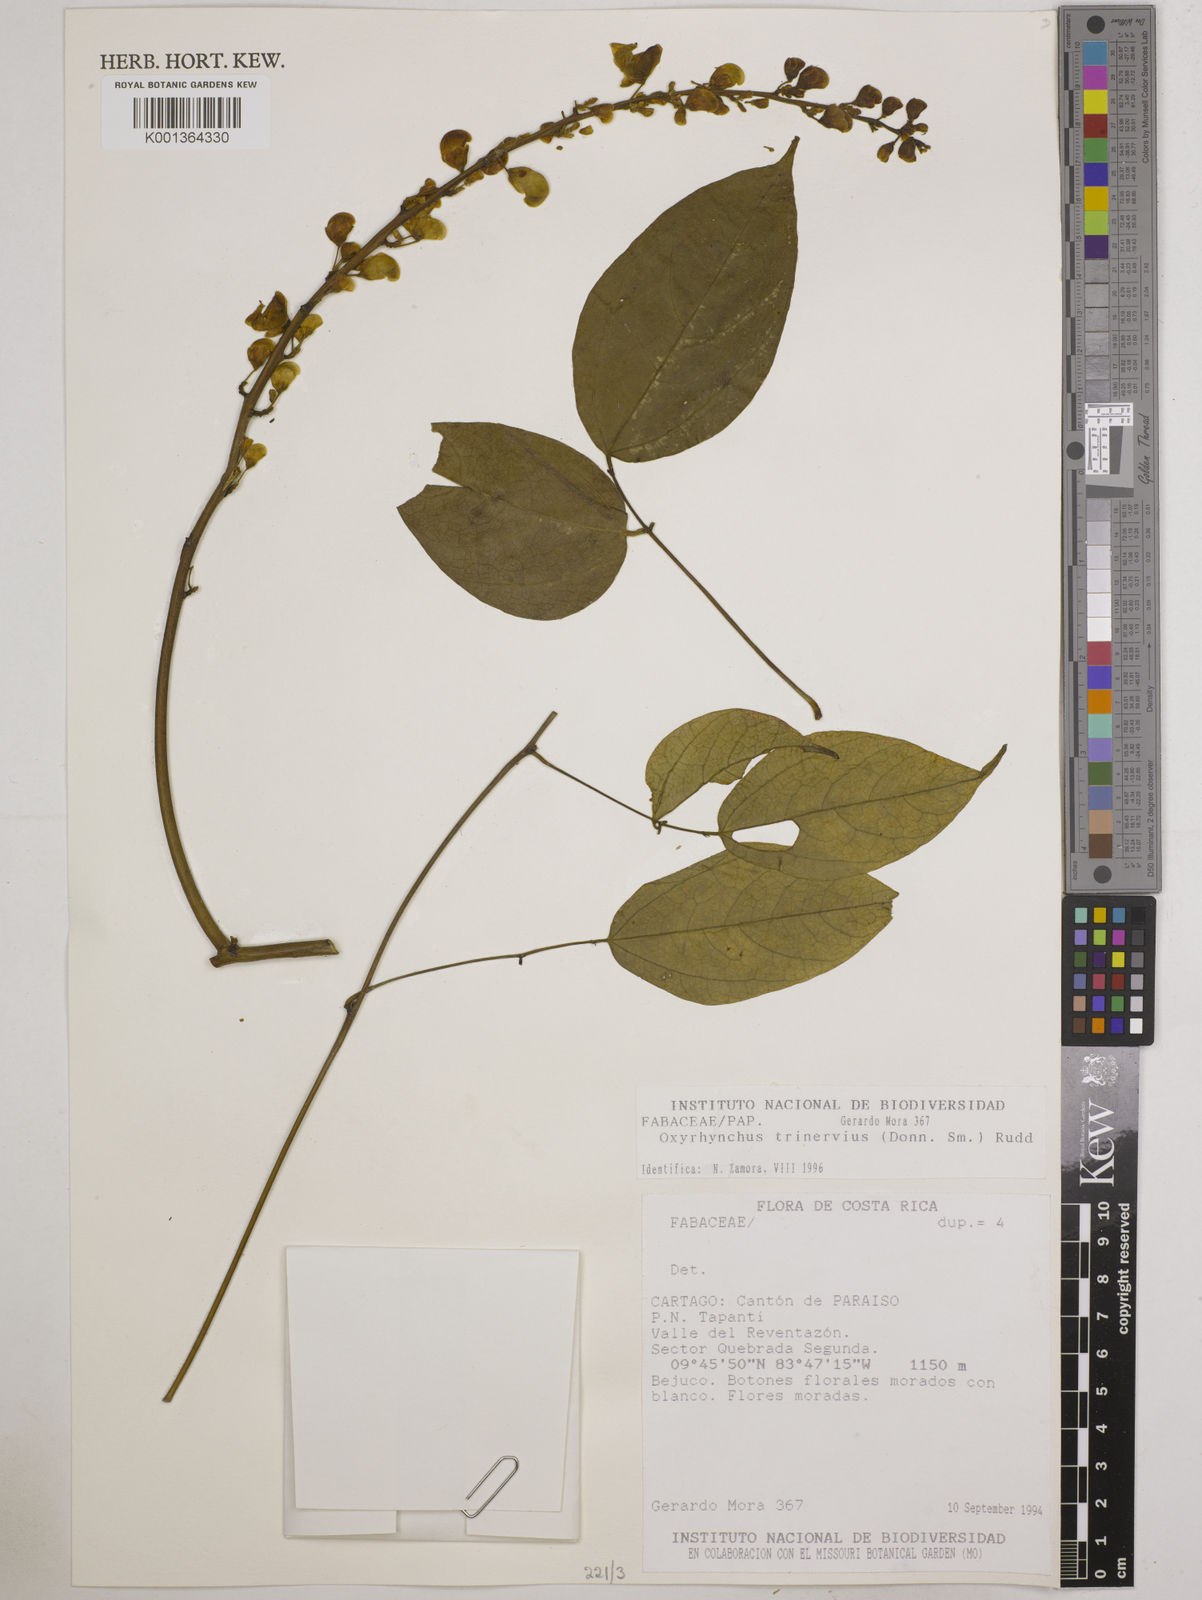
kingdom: Plantae
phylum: Tracheophyta
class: Magnoliopsida
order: Fabales
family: Fabaceae
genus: Oxyrhynchus
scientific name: Oxyrhynchus trinervius
